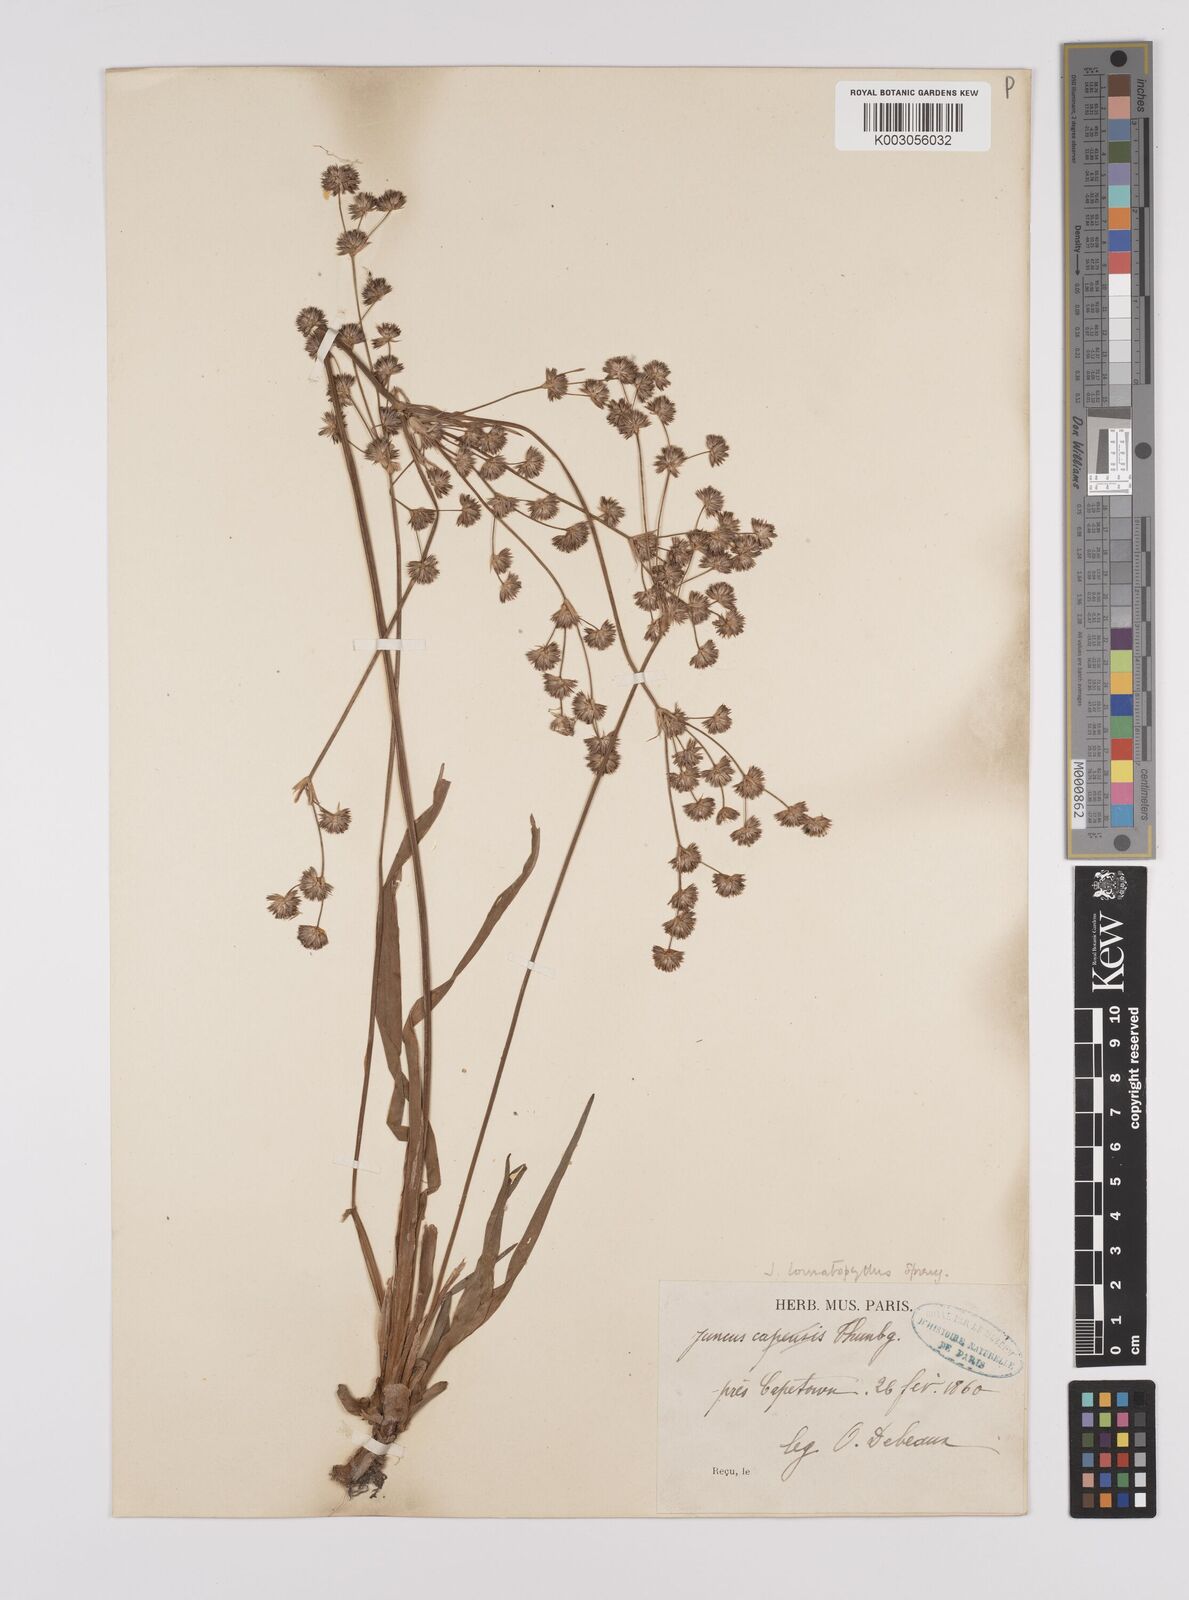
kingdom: Plantae
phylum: Tracheophyta
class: Liliopsida
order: Poales
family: Juncaceae
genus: Juncus
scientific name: Juncus lomatophyllus
